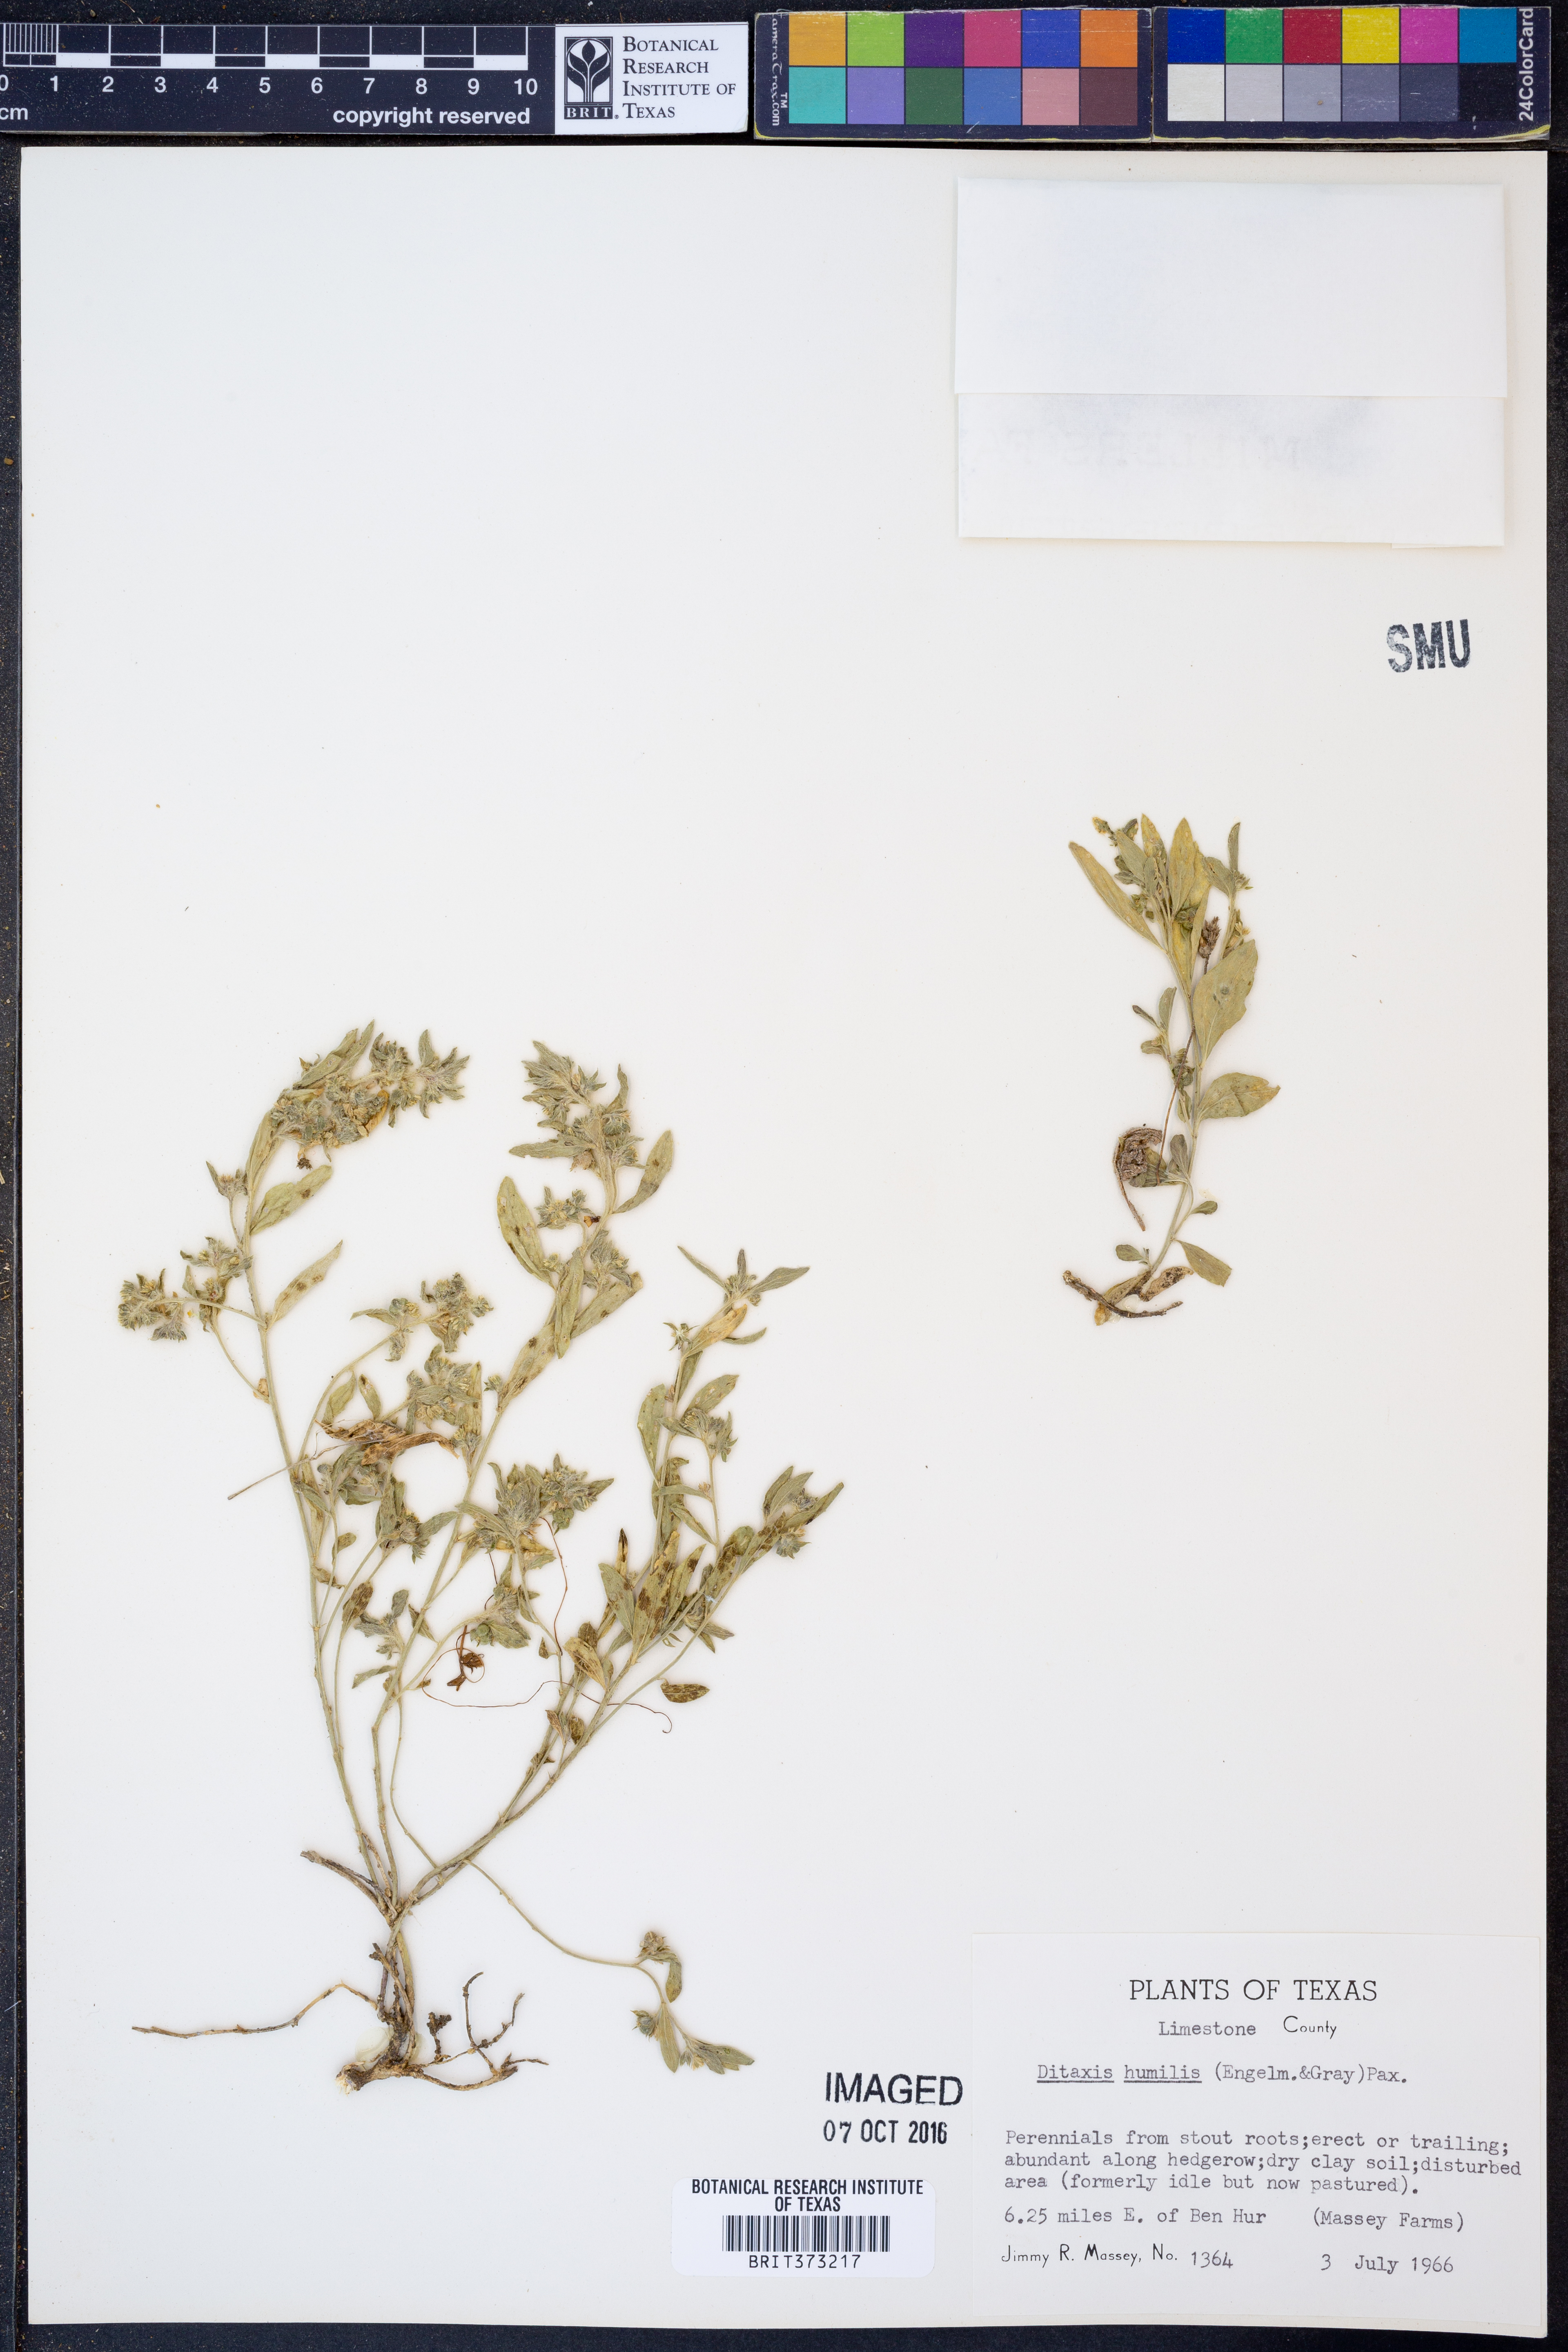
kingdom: Plantae
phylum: Tracheophyta
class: Magnoliopsida
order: Malpighiales
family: Euphorbiaceae
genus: Ditaxis
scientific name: Ditaxis humilis
